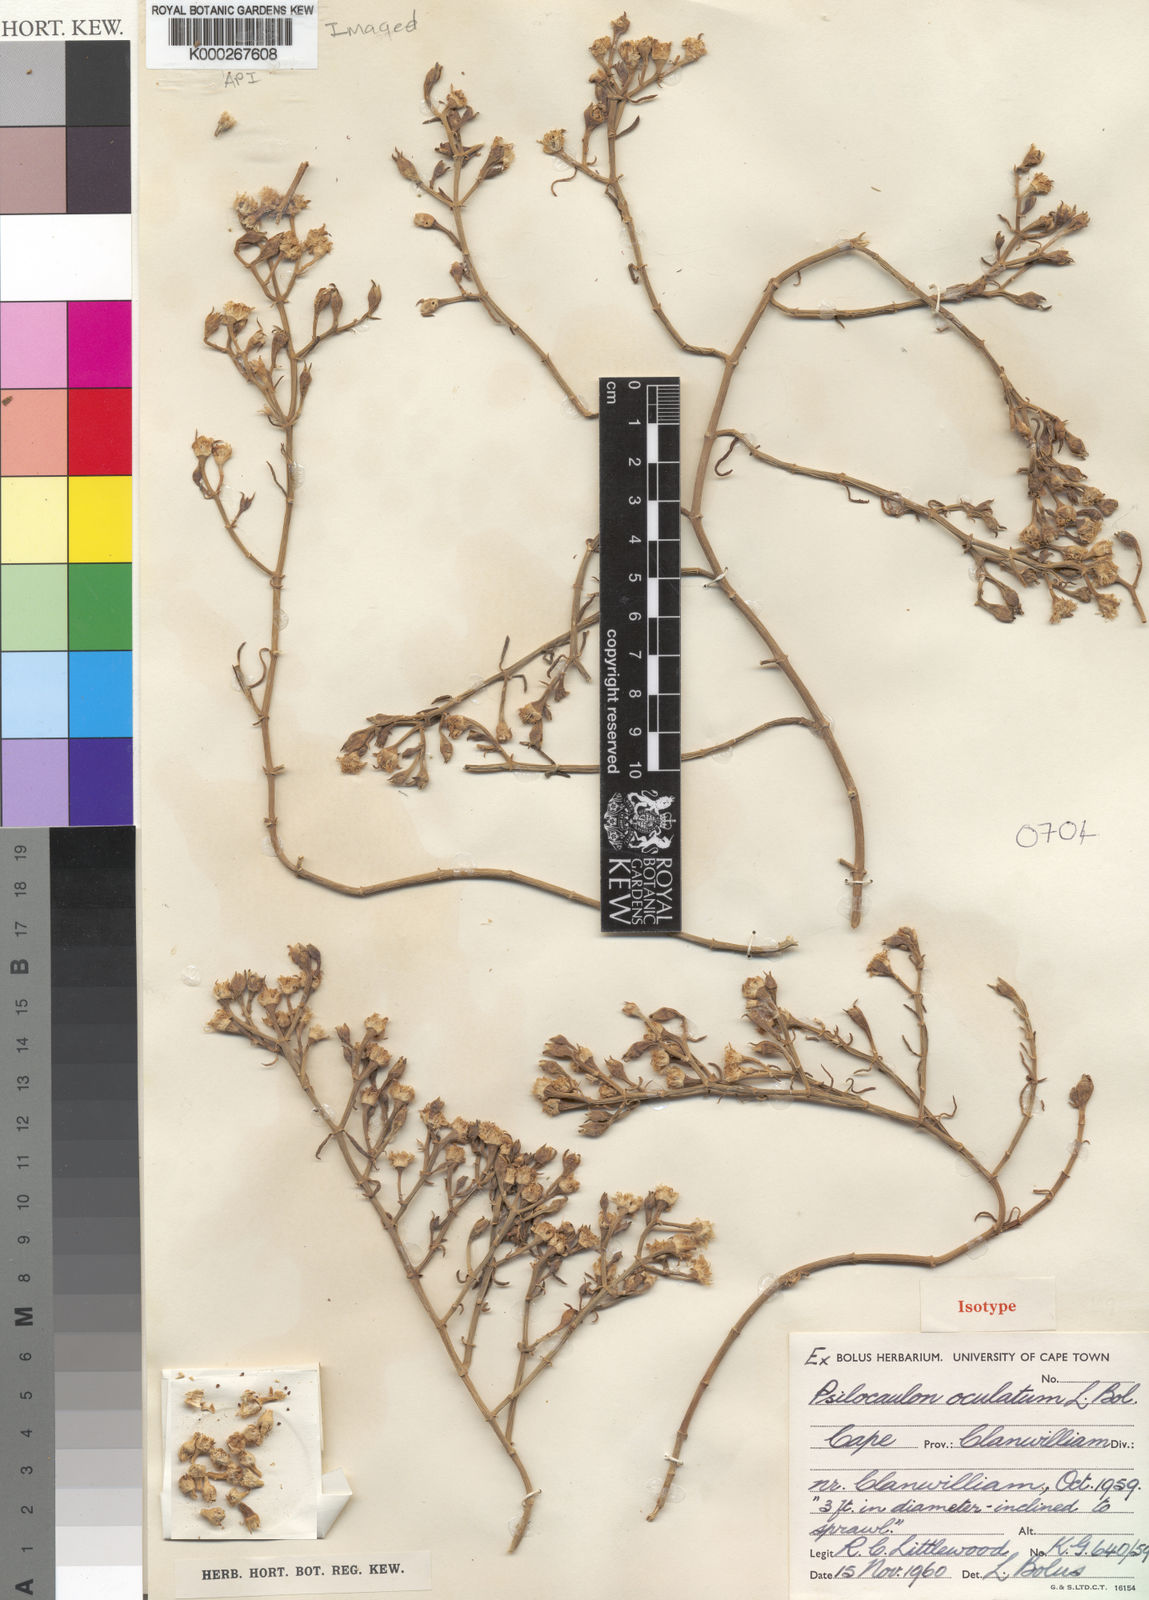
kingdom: Plantae
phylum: Tracheophyta
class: Magnoliopsida
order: Caryophyllales
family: Aizoaceae
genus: Mesembryanthemum
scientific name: Mesembryanthemum junceum
